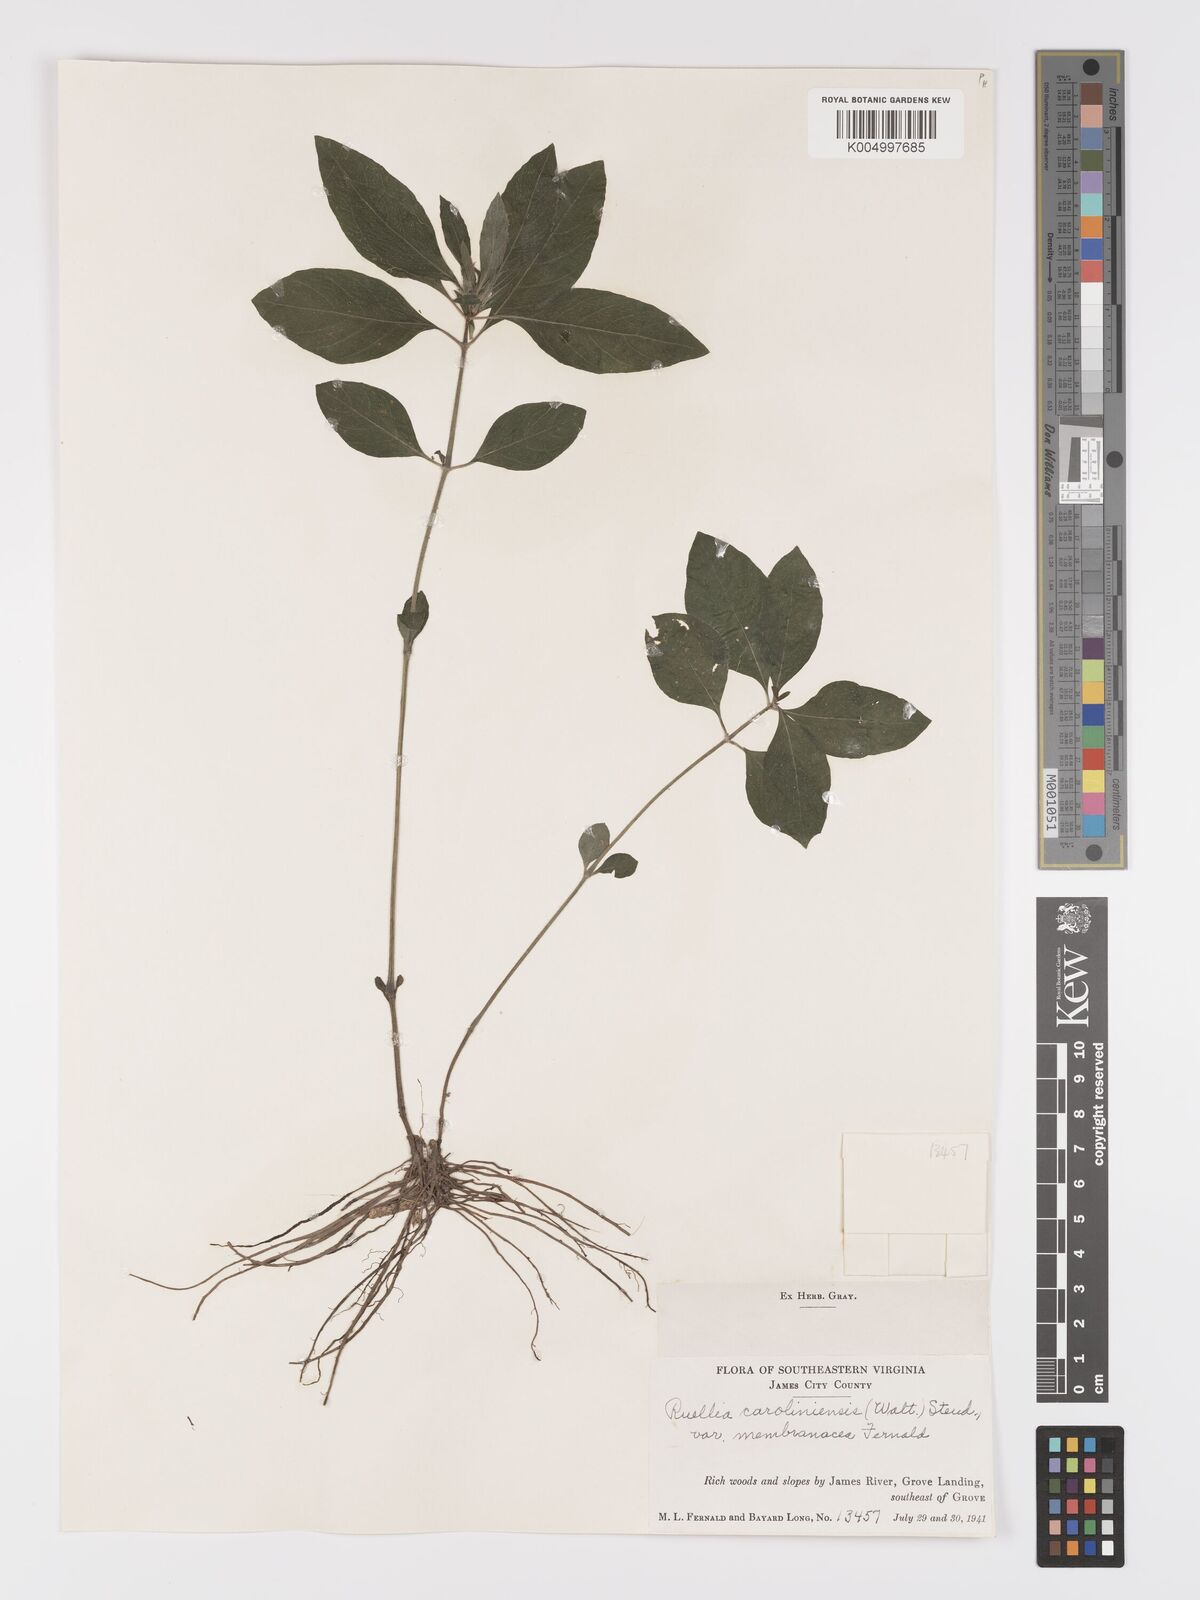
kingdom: Plantae
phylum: Tracheophyta
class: Magnoliopsida
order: Lamiales
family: Acanthaceae
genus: Ruellia
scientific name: Ruellia caroliniensis
